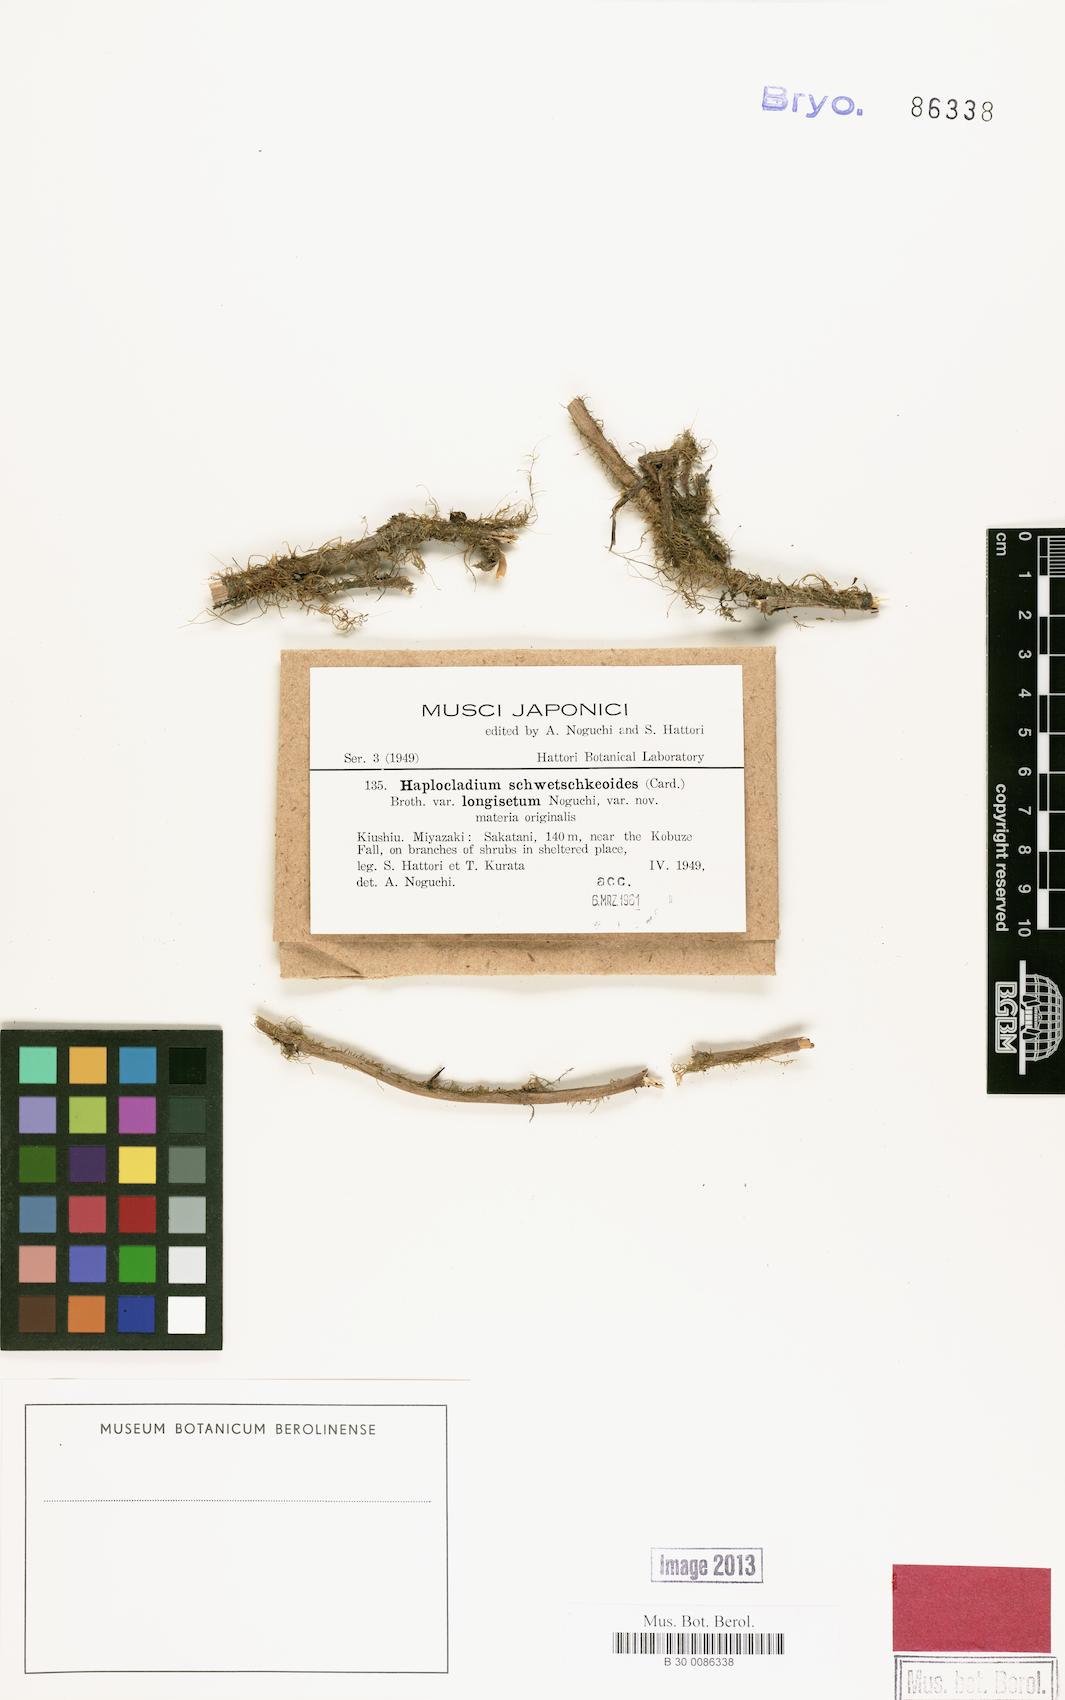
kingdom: Plantae
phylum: Bryophyta
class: Bryopsida
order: Hypnales
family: Leskeaceae
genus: Haplocladium
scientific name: Haplocladium angustifolium
